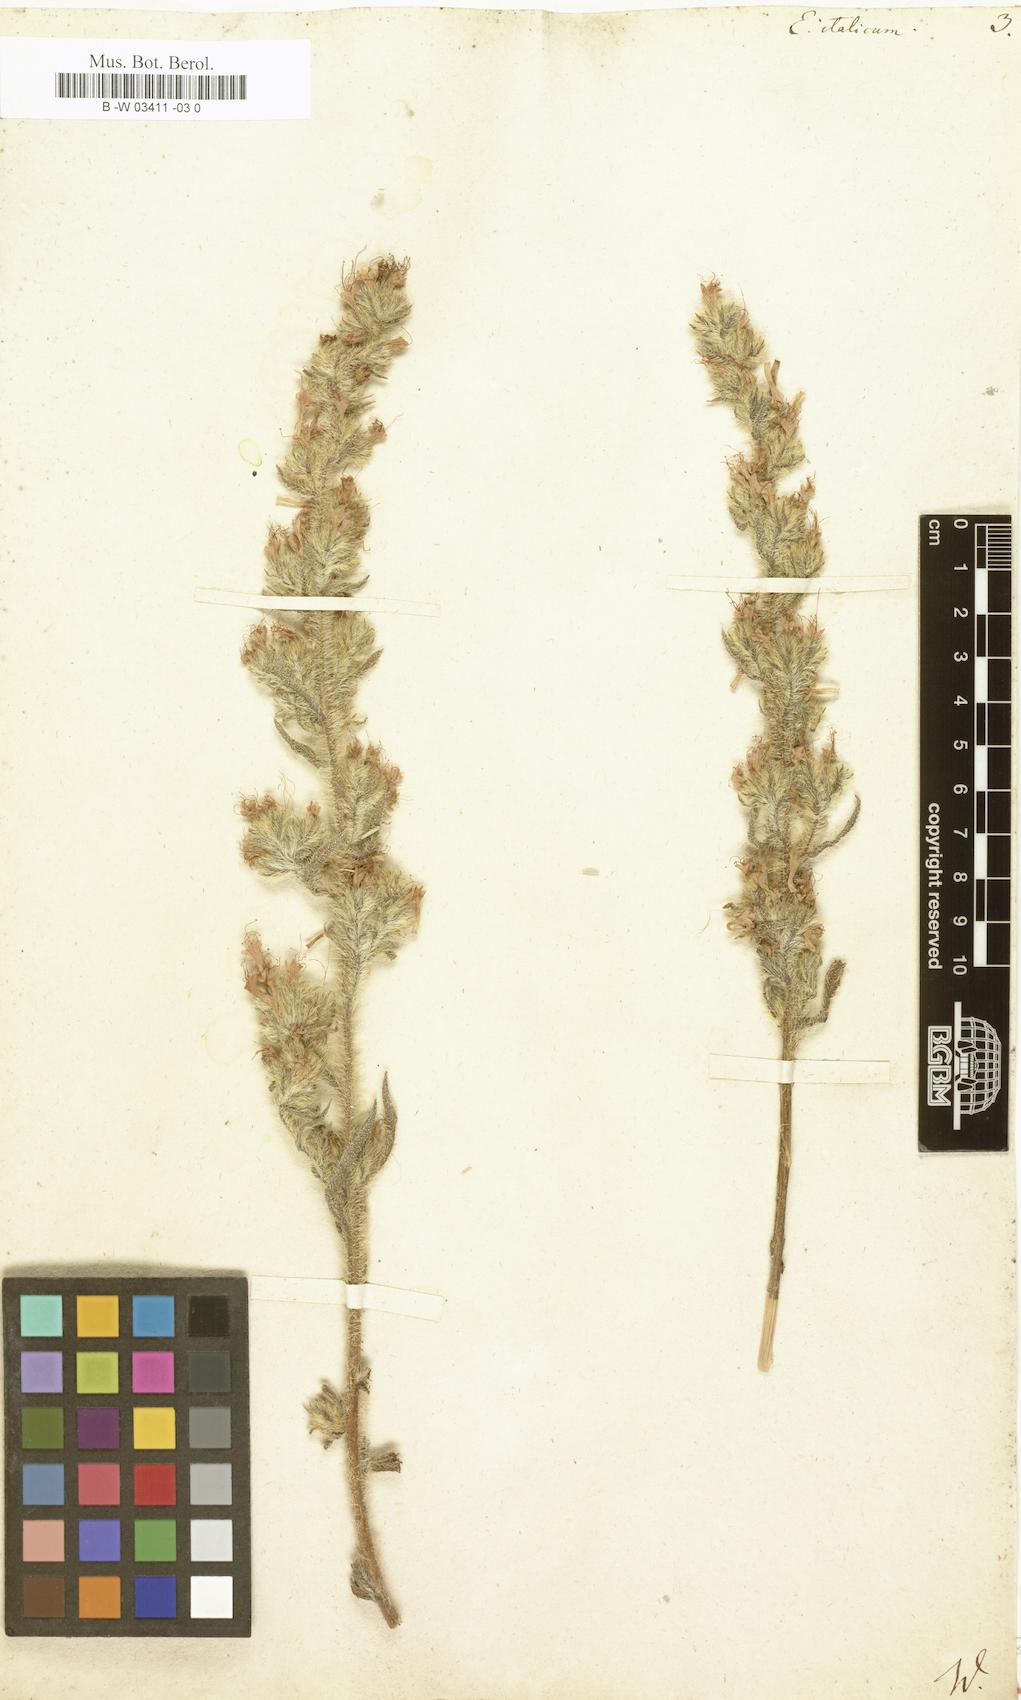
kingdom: Plantae
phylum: Tracheophyta
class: Magnoliopsida
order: Boraginales
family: Boraginaceae
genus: Echium
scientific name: Echium flavum
